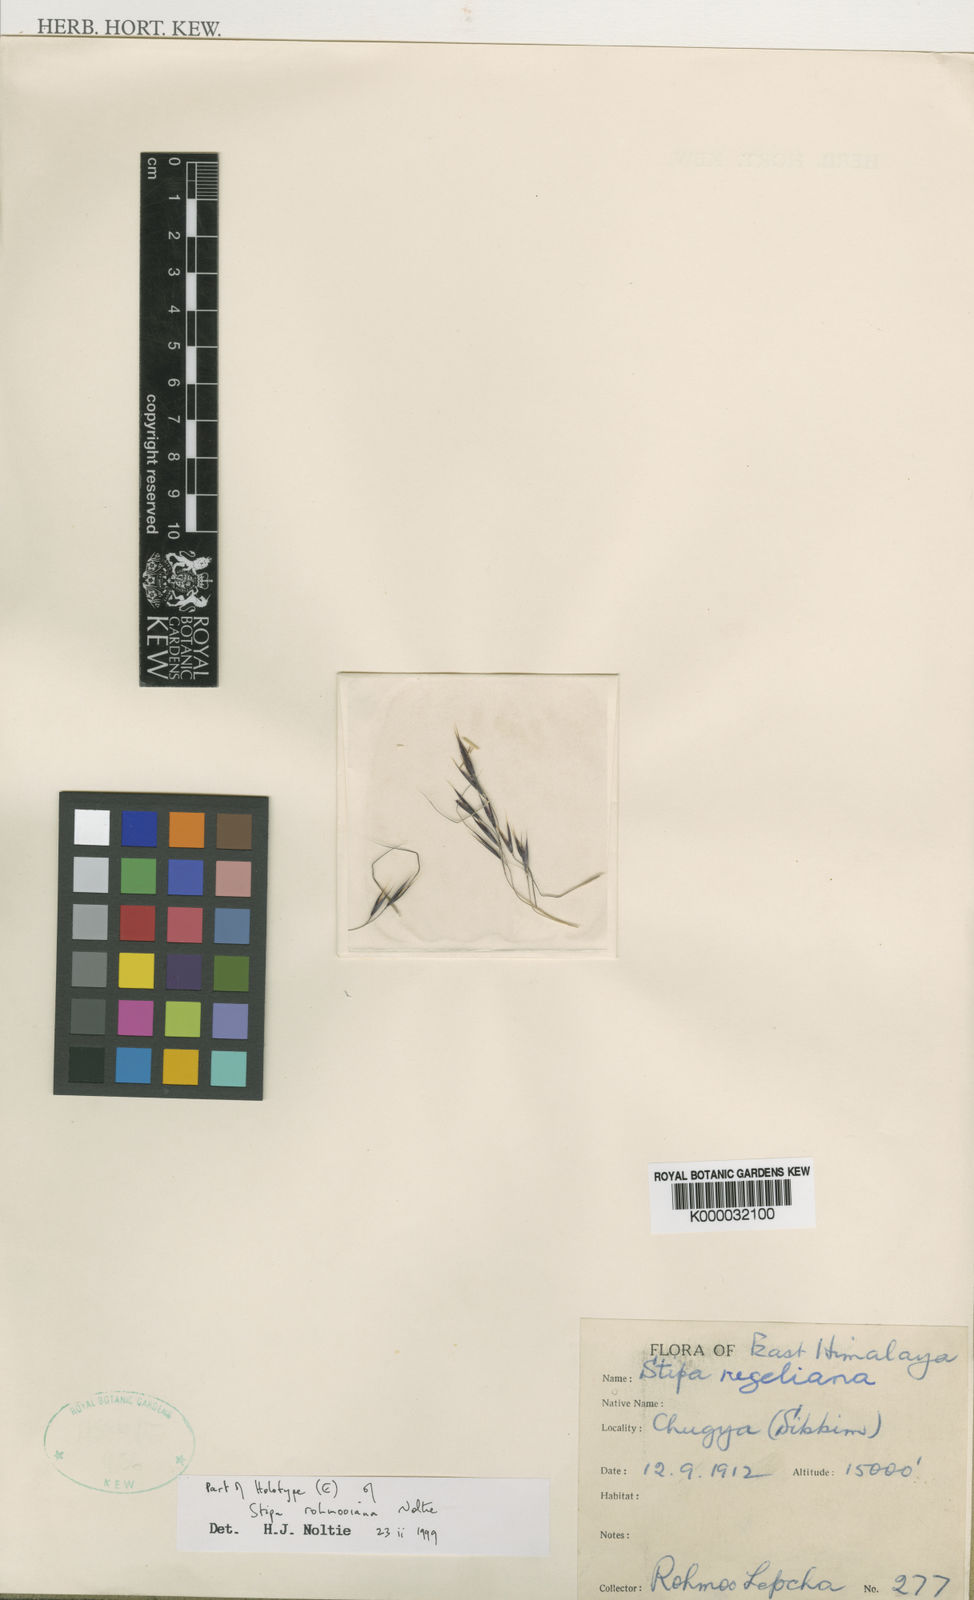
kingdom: Plantae
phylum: Tracheophyta
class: Liliopsida
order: Poales
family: Poaceae
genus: Stipa
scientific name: Stipa rohmooiana
